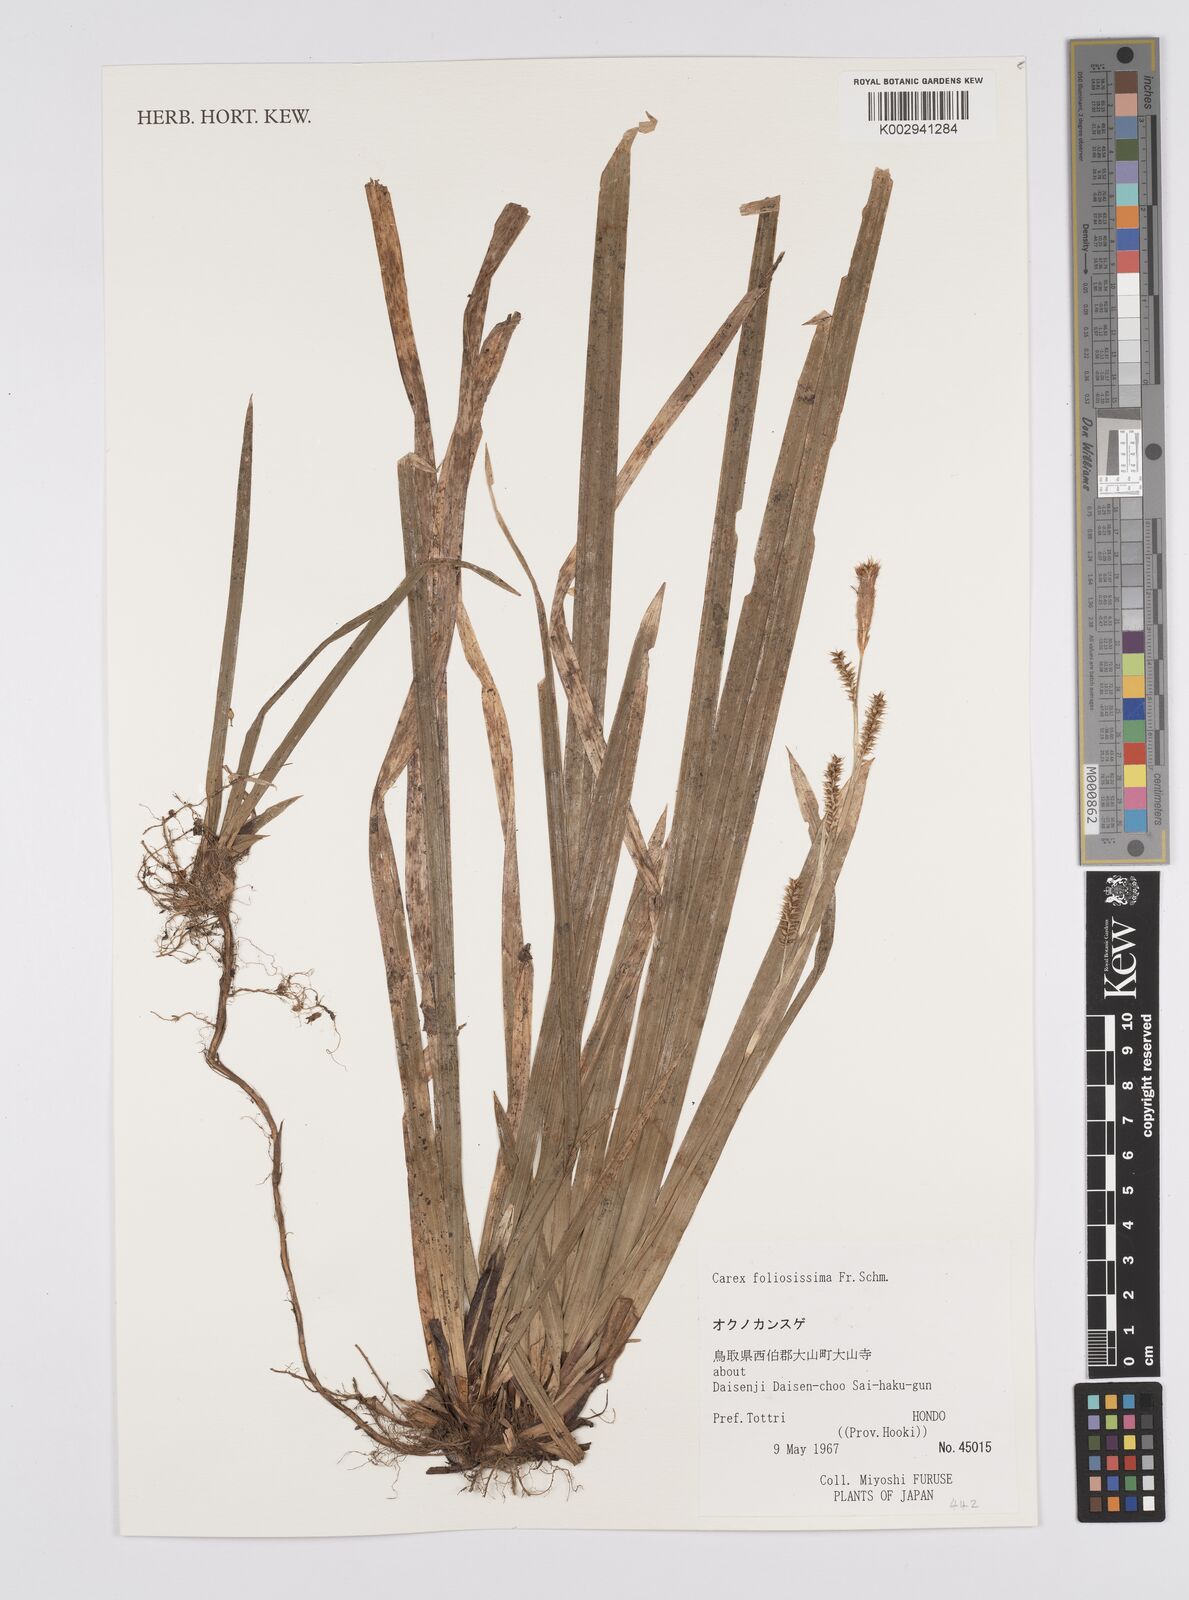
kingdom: Plantae
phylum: Tracheophyta
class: Liliopsida
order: Poales
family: Cyperaceae
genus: Carex
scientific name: Carex foliosissima
